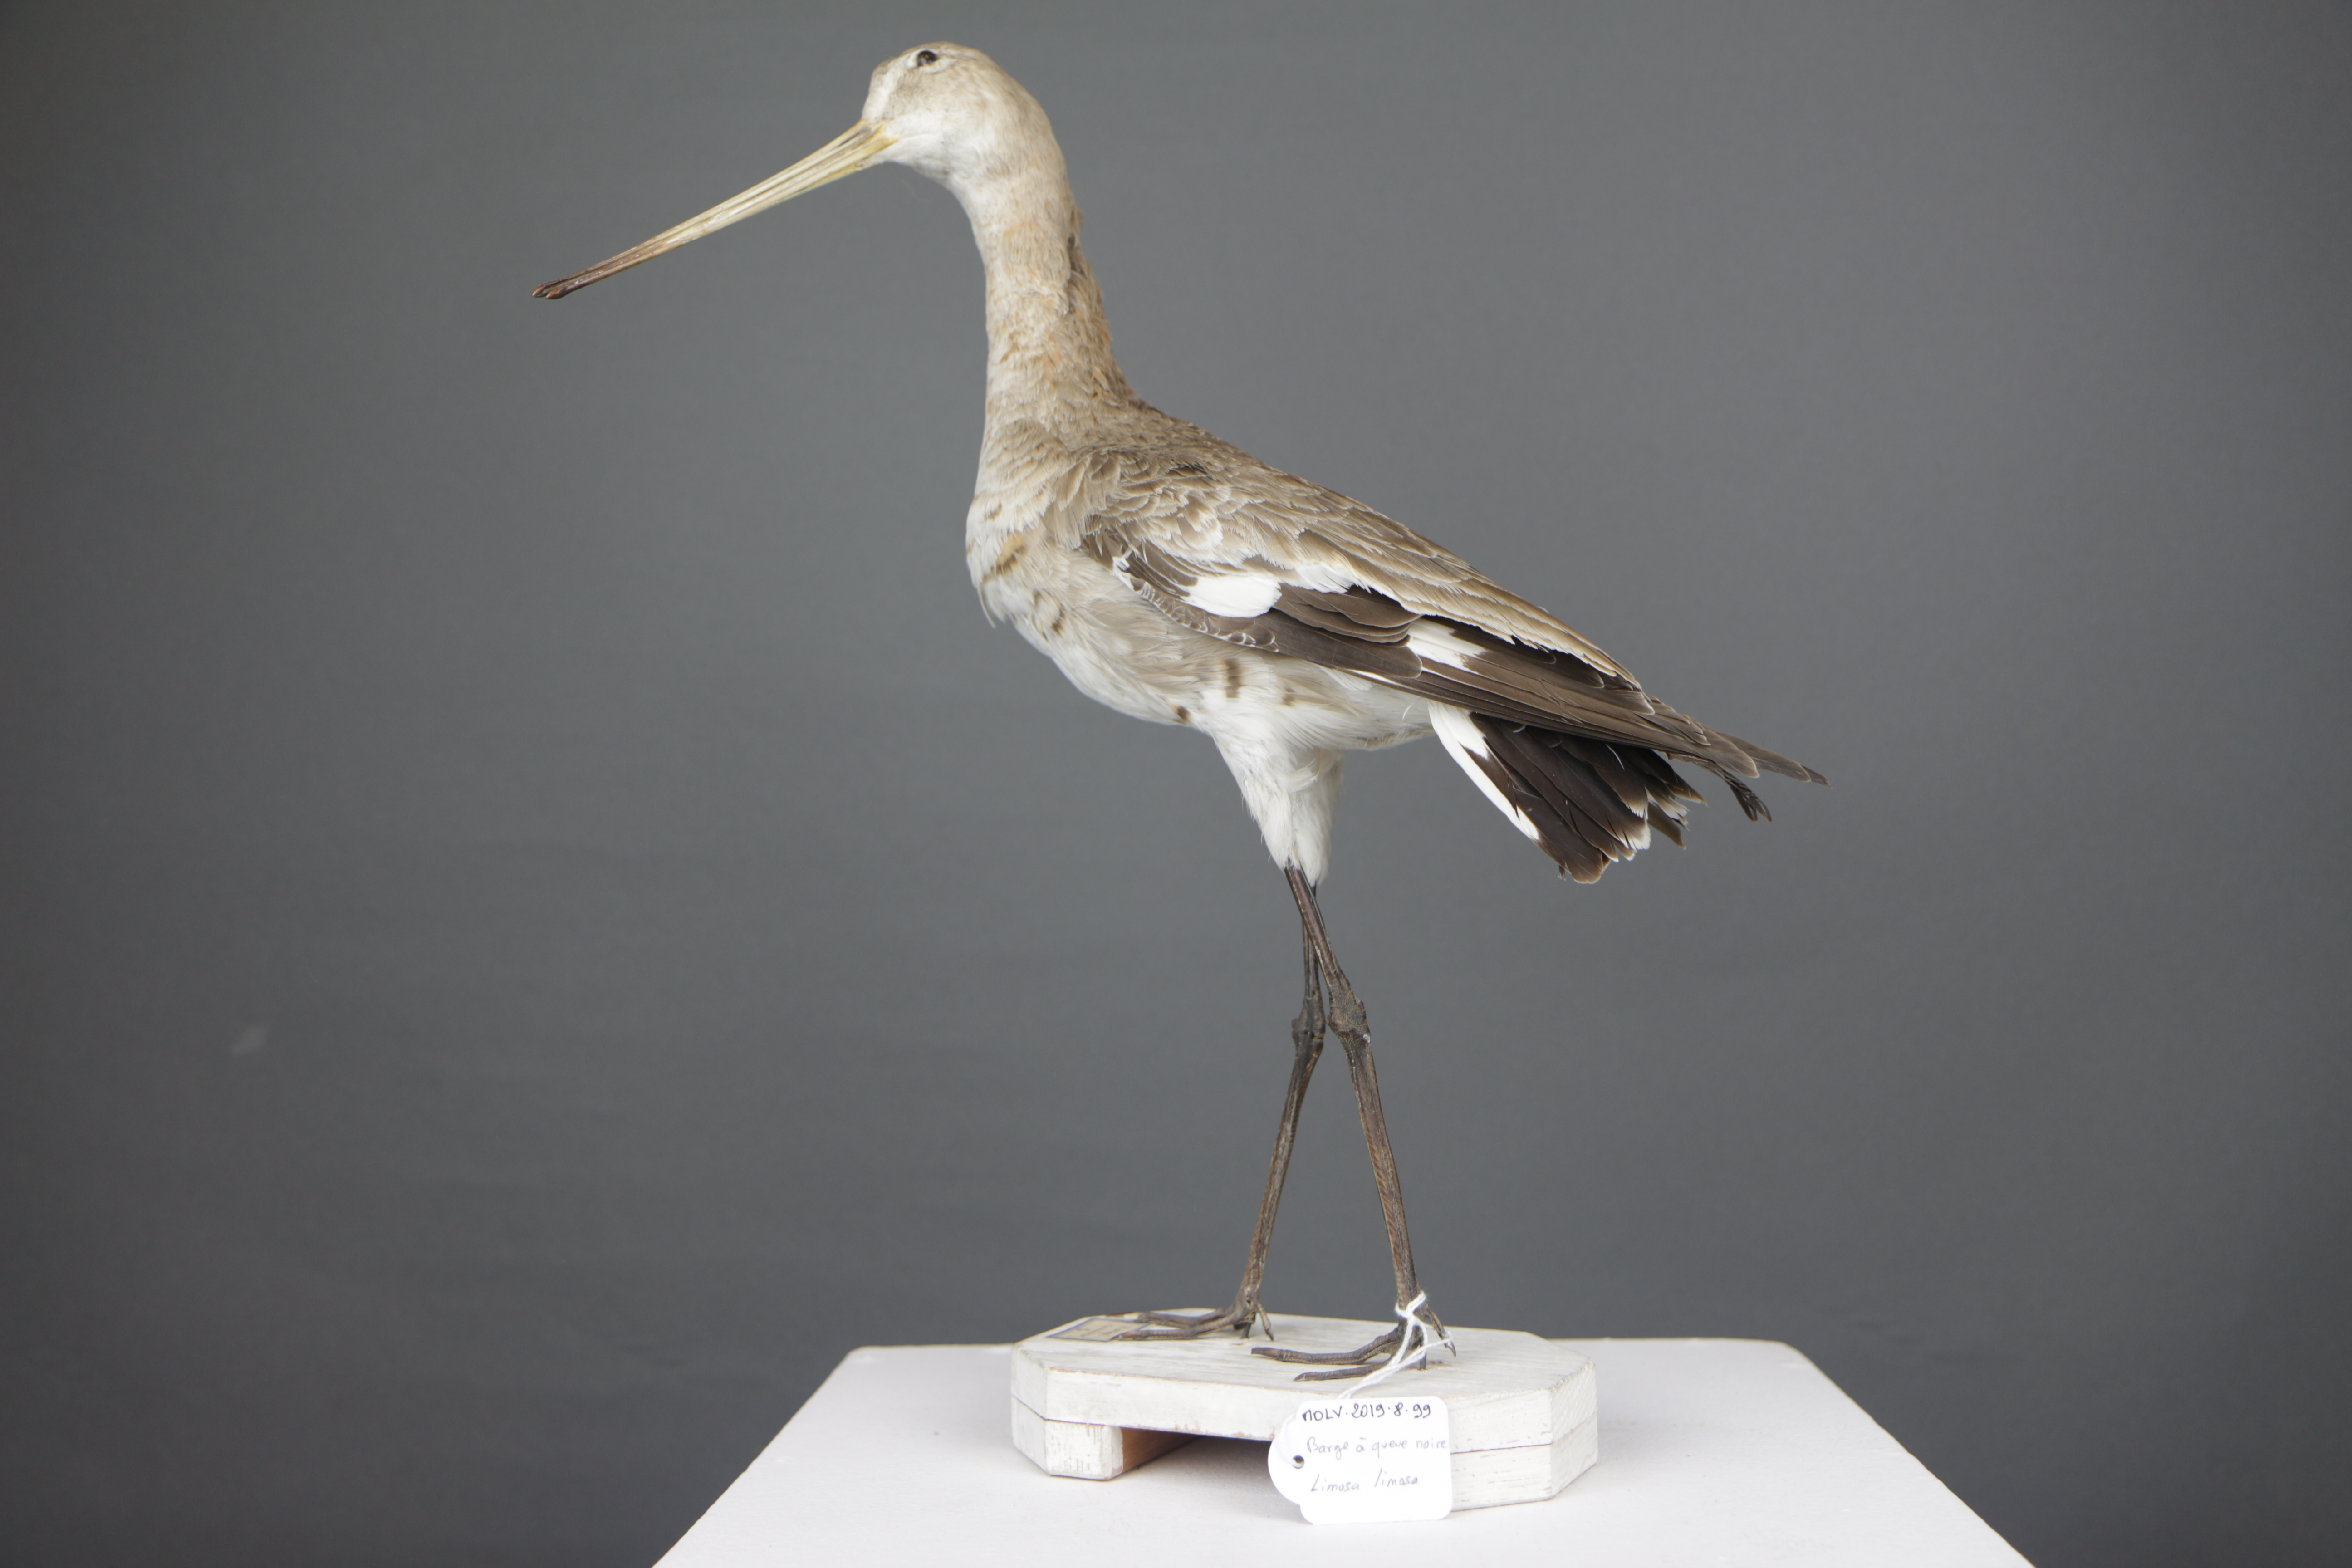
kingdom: Animalia
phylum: Chordata
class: Aves
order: Charadriiformes
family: Scolopacidae
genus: Limosa
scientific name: Limosa limosa
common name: Black-tailed godwit
